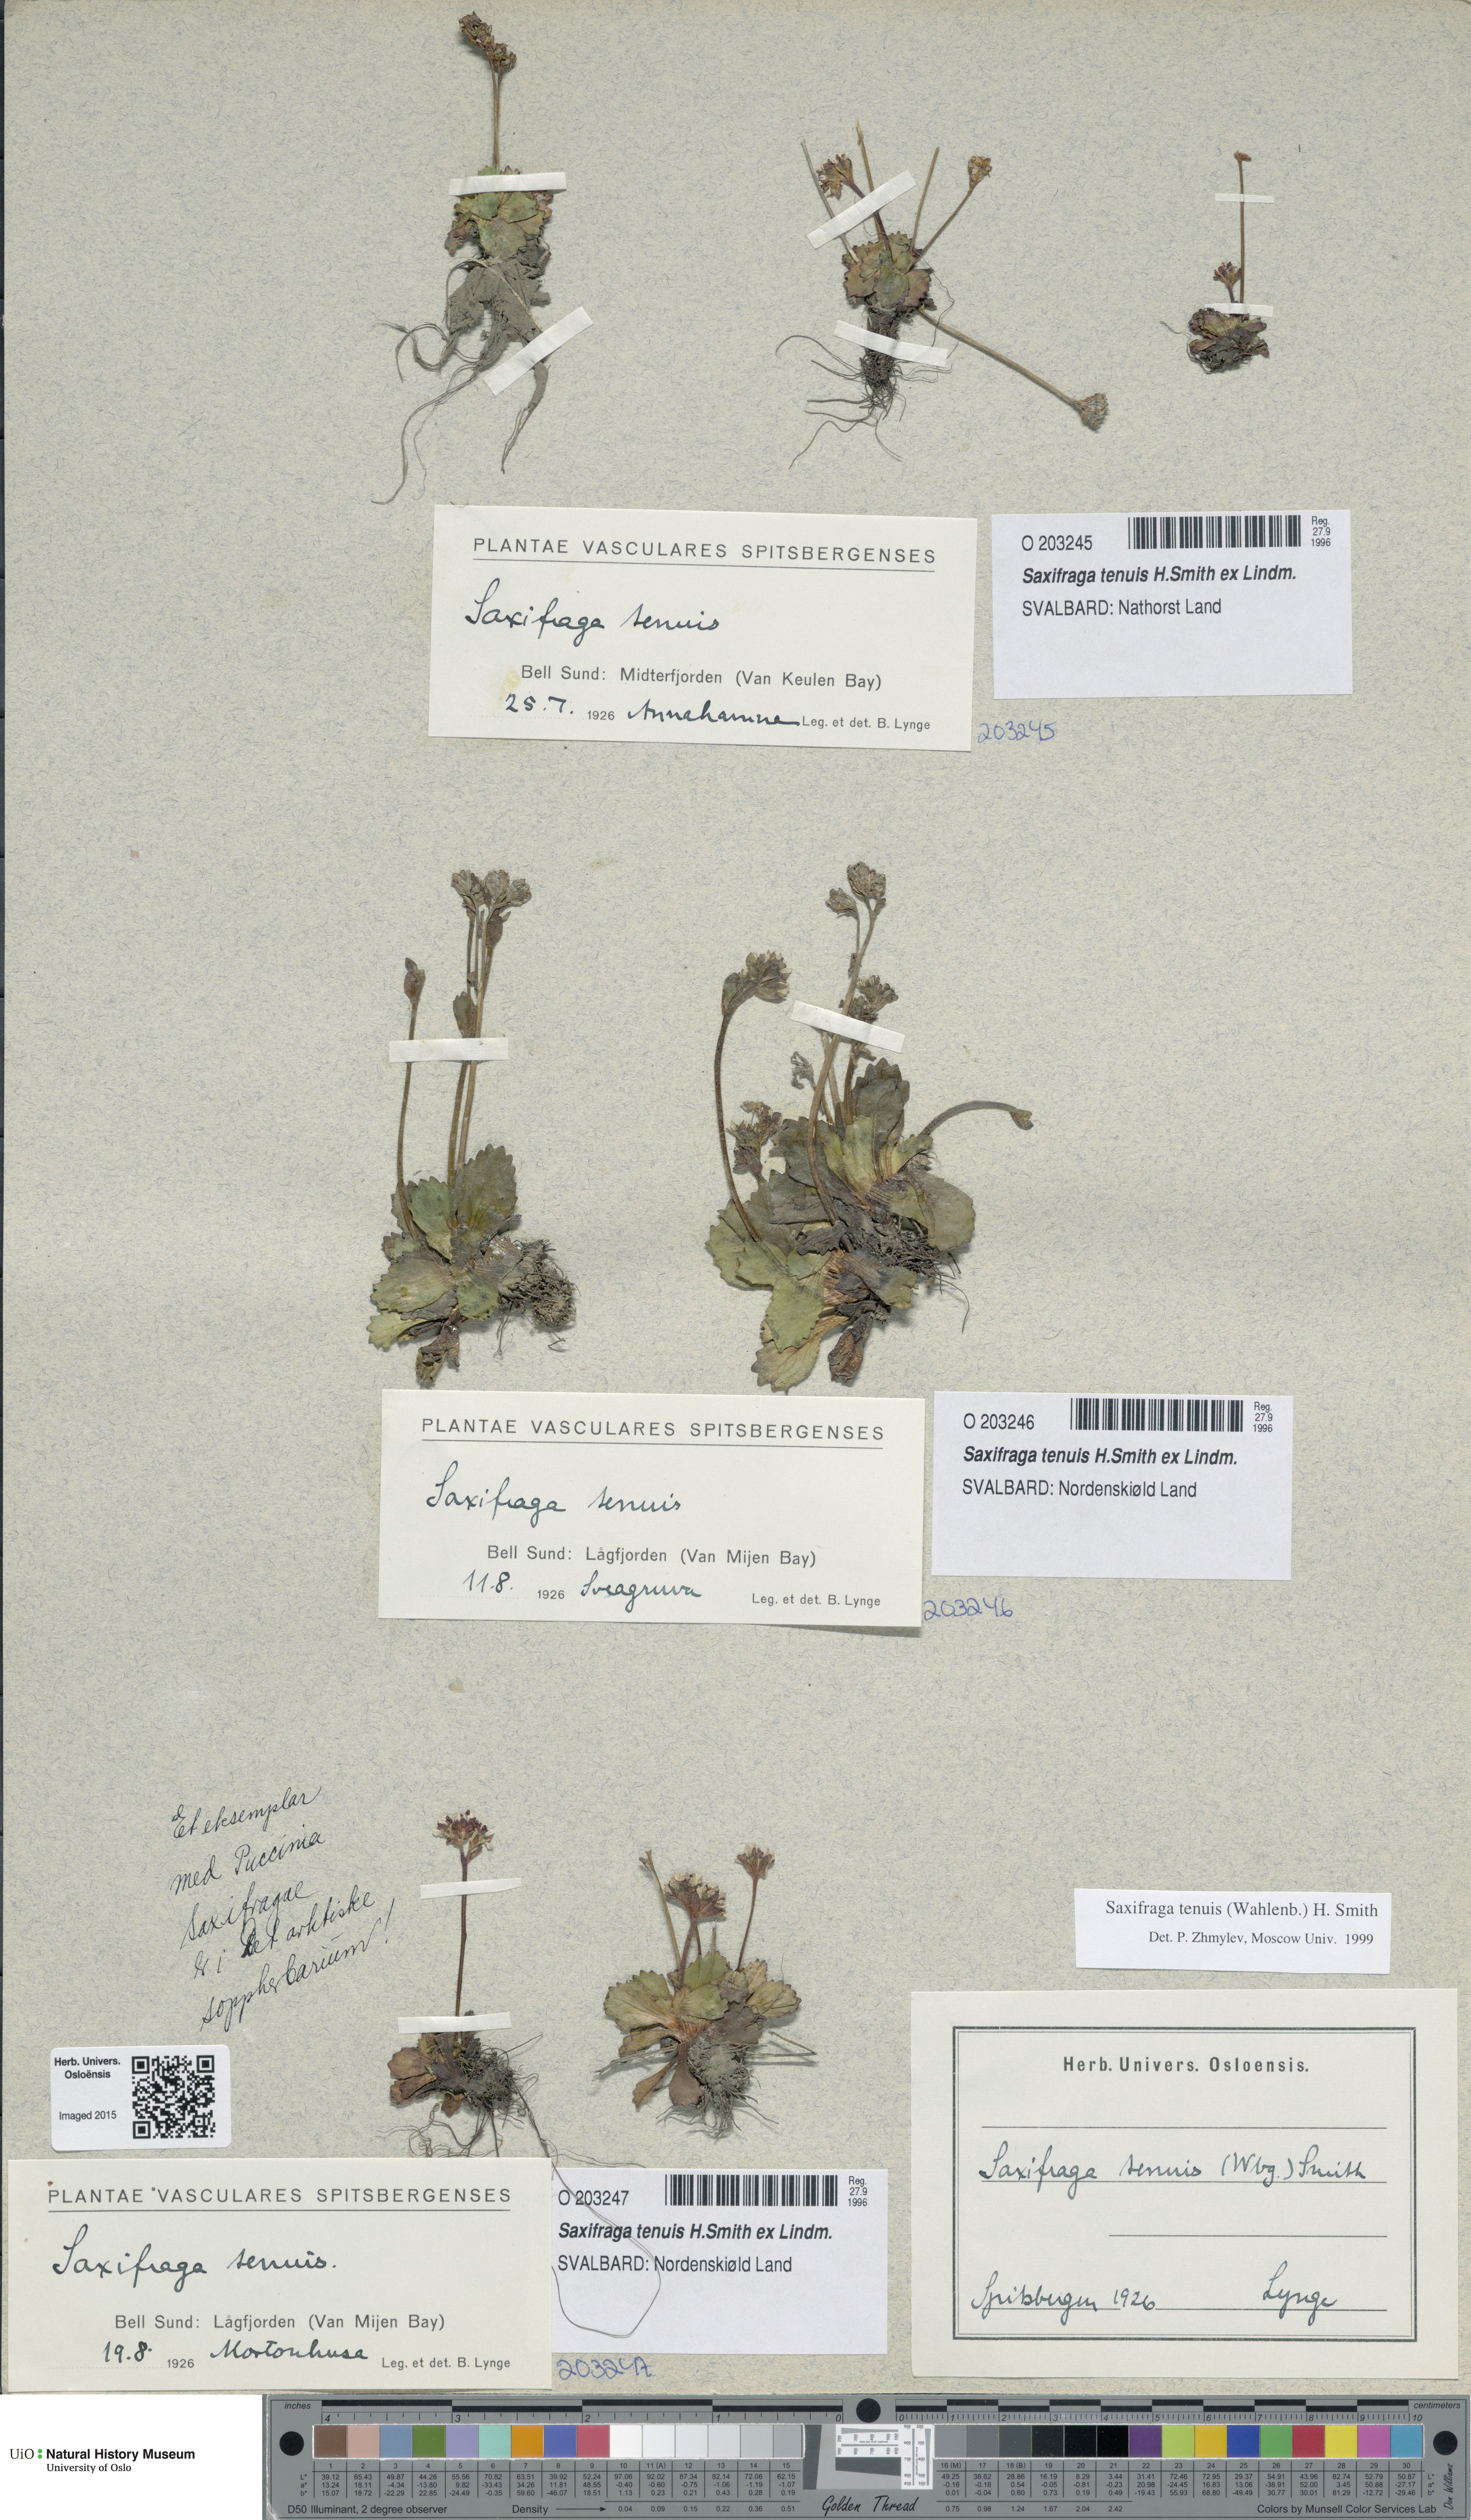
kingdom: Plantae
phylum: Tracheophyta
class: Magnoliopsida
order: Saxifragales
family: Saxifragaceae
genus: Micranthes
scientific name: Micranthes tenuis
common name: Ottertail pass saxifrage
